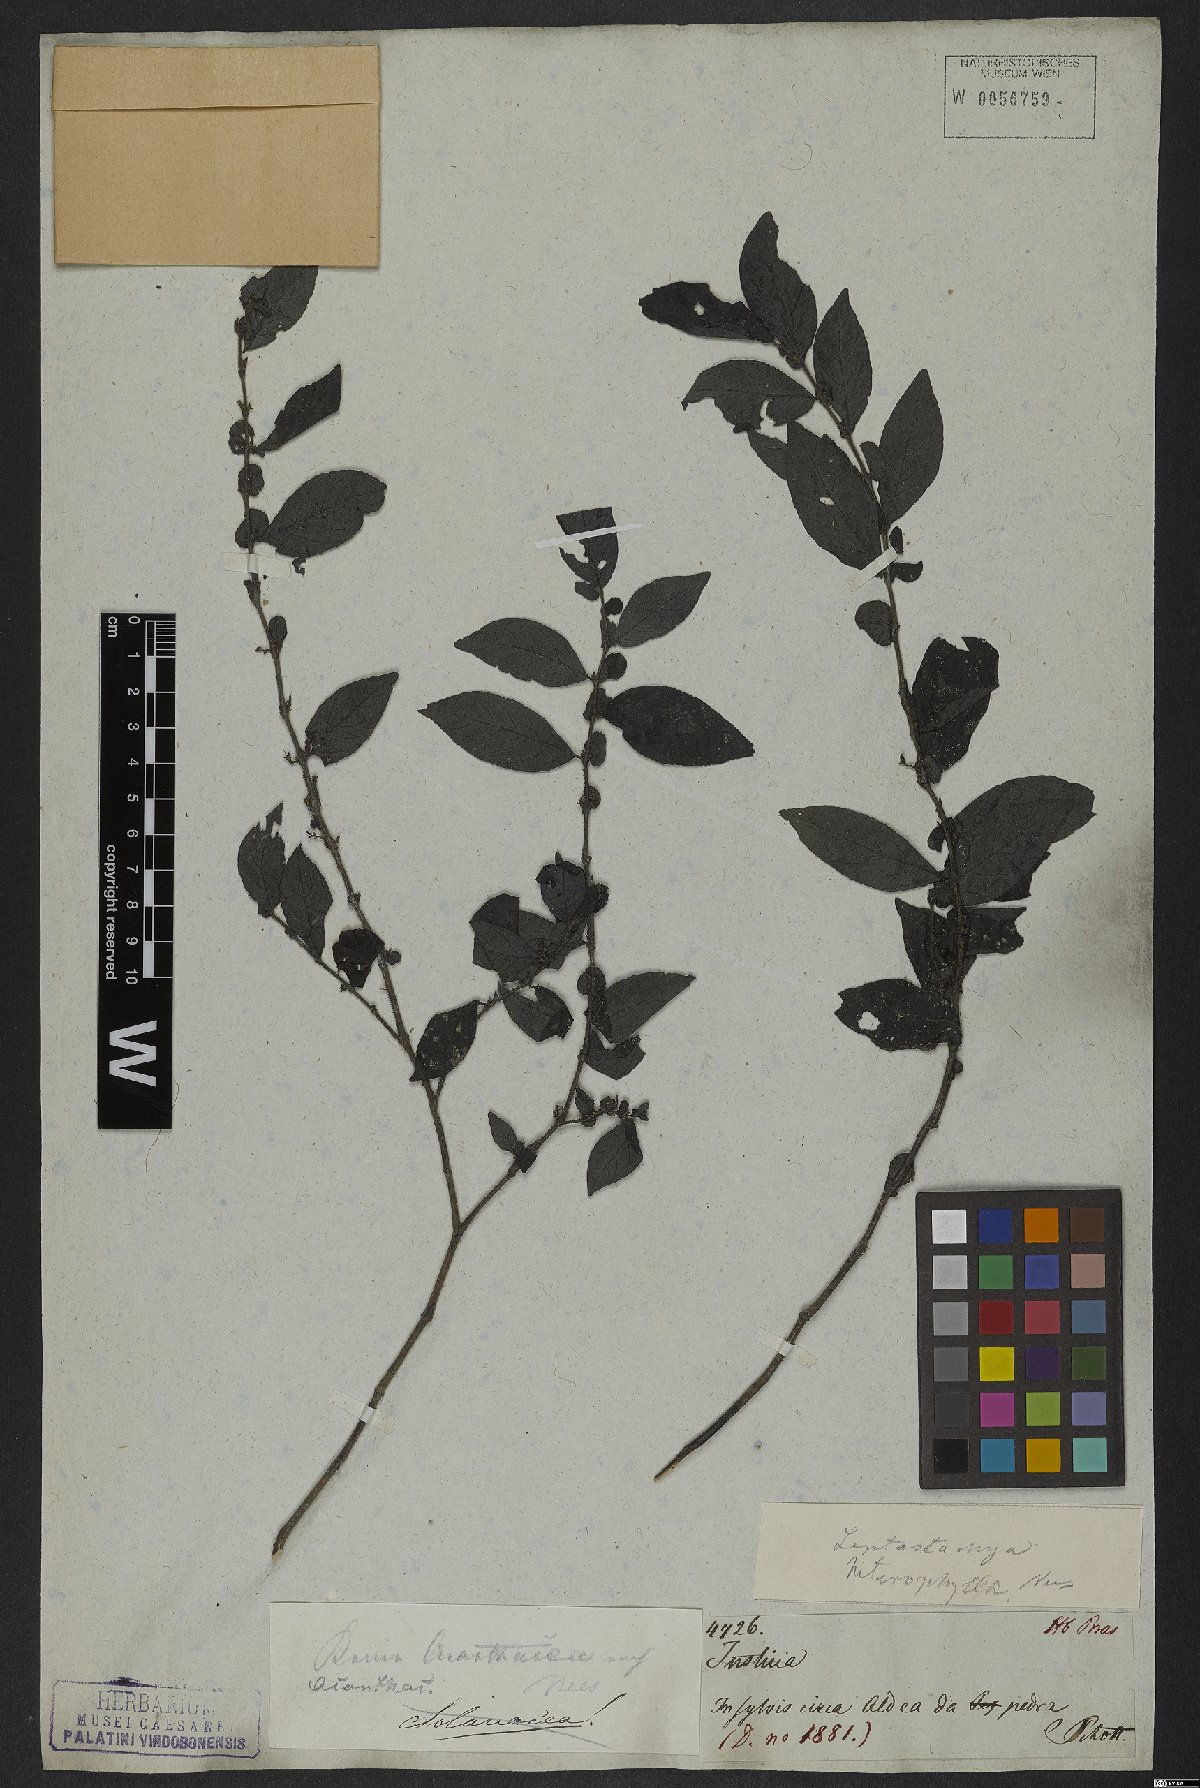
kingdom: Plantae
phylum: Tracheophyta
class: Magnoliopsida
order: Lamiales
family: Acanthaceae
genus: Justicia
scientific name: Justicia heterophylla
